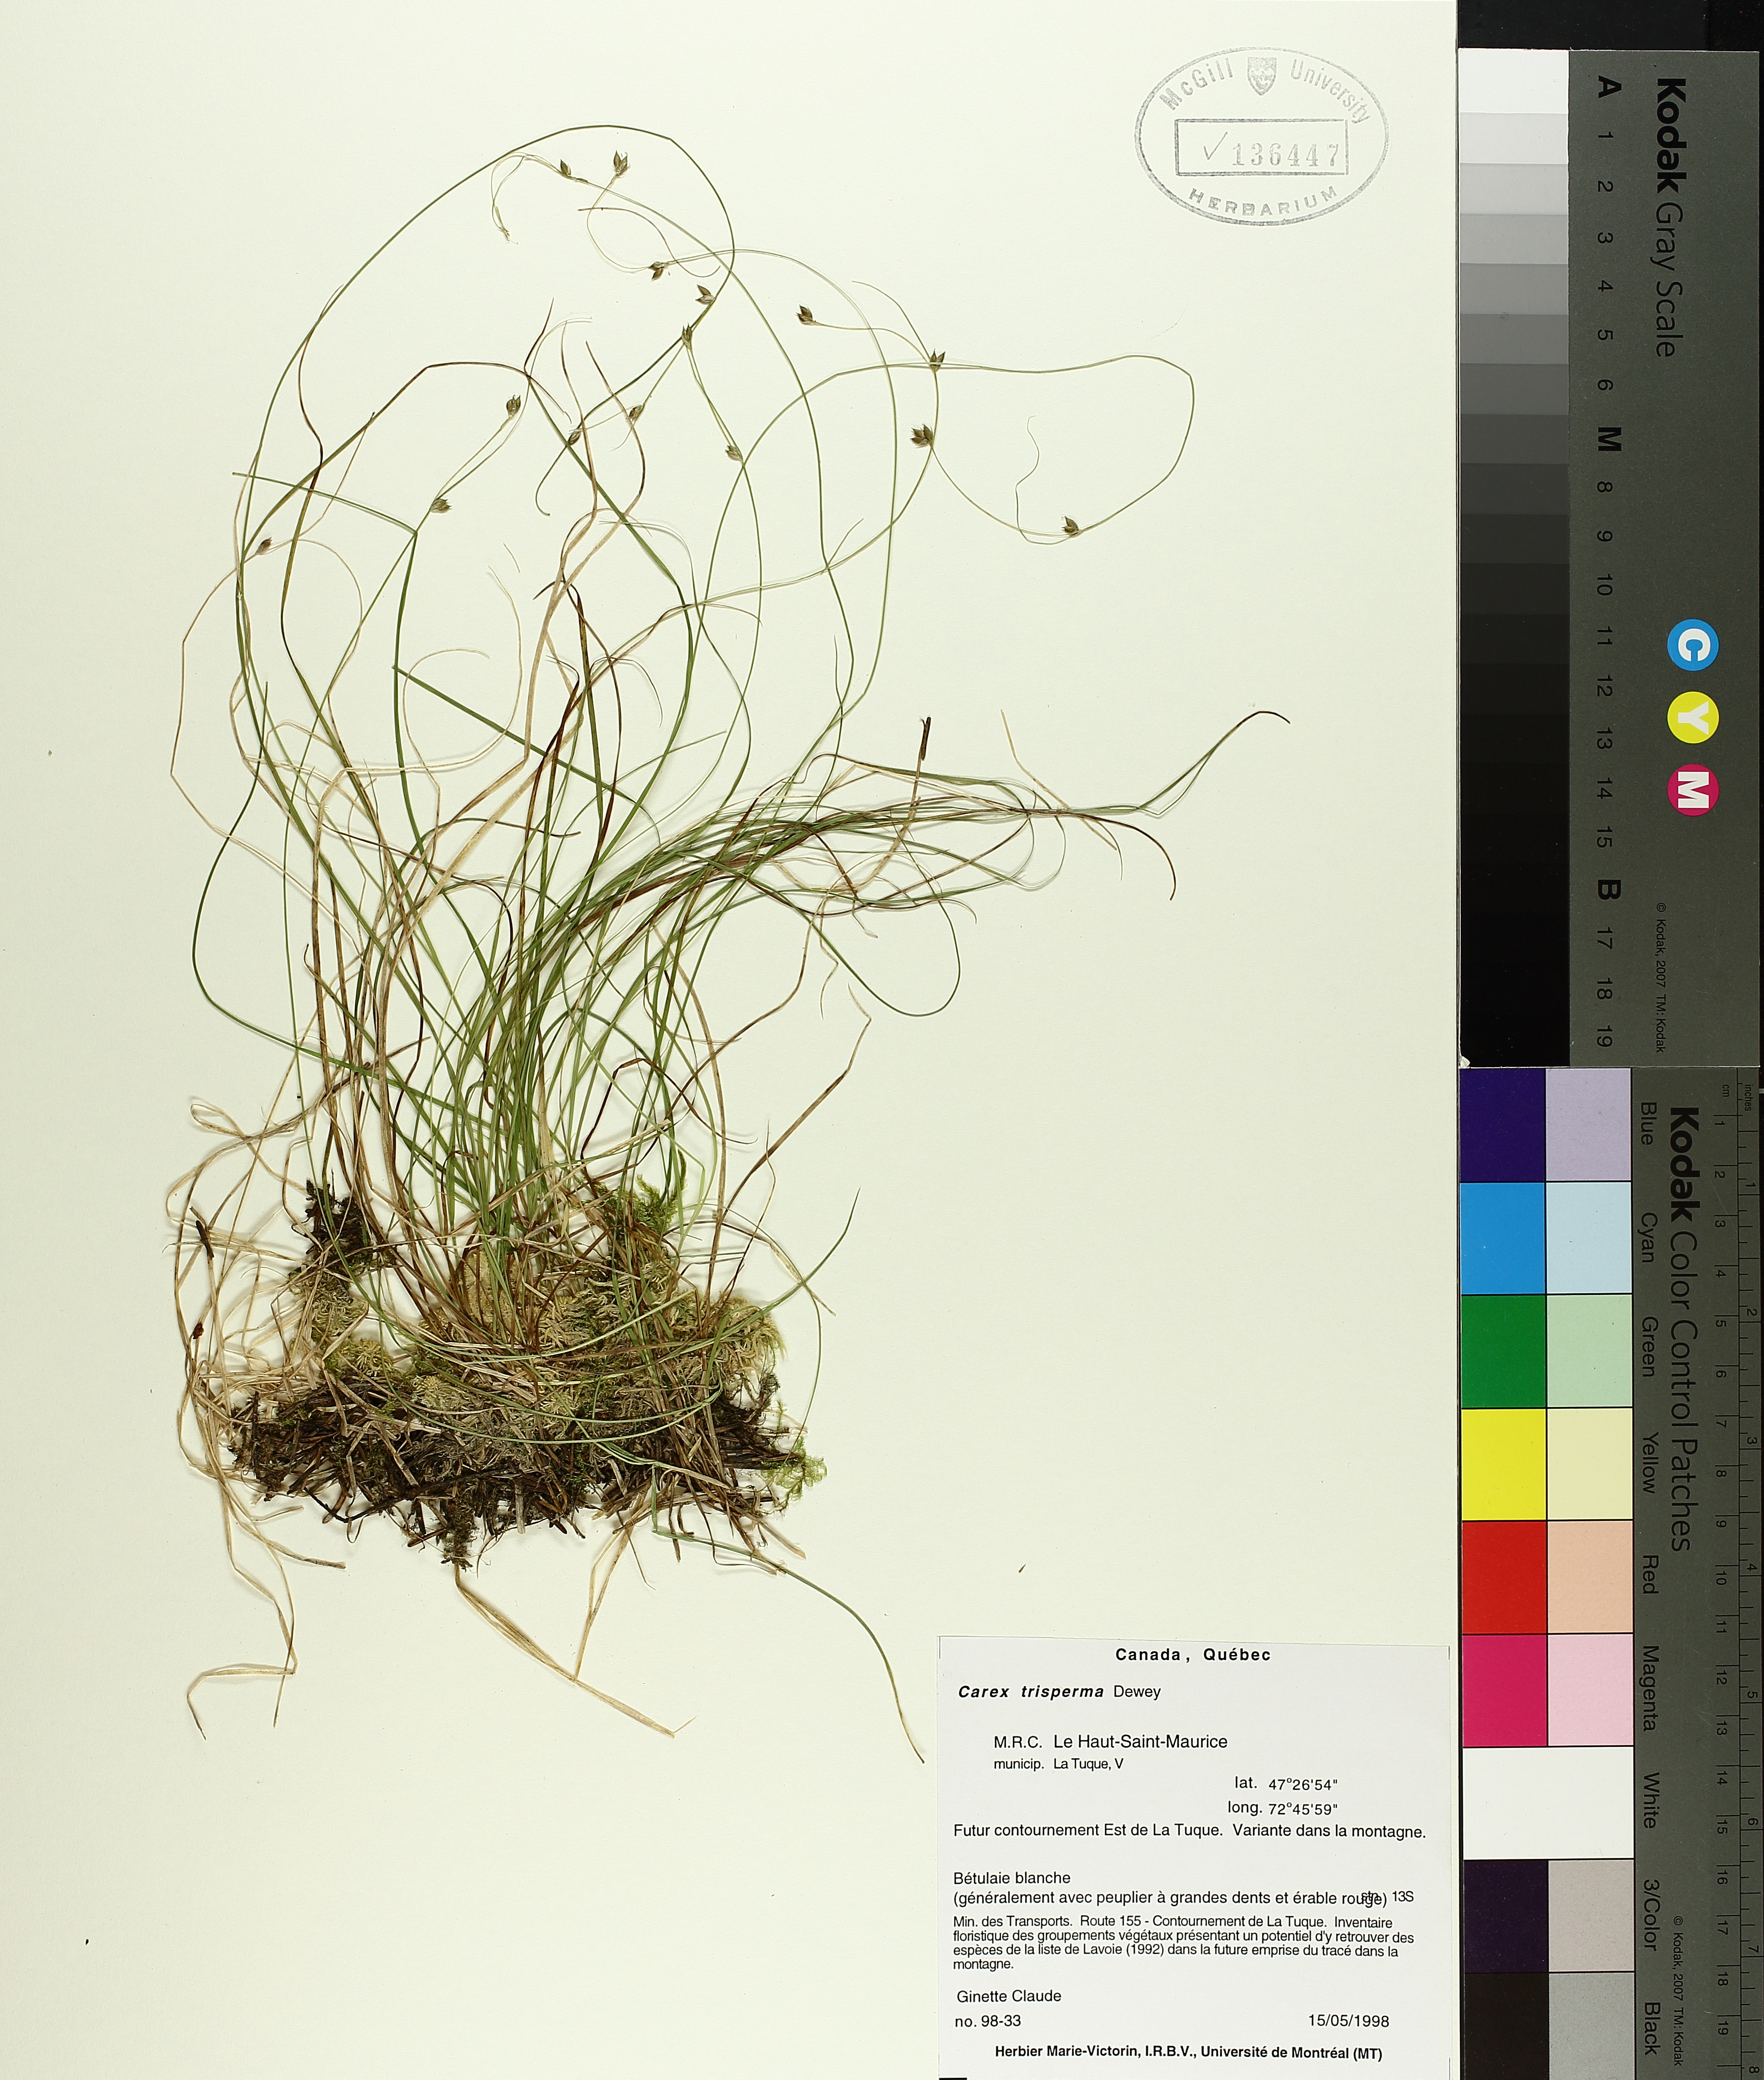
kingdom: Plantae
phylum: Tracheophyta
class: Liliopsida
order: Poales
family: Cyperaceae
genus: Carex
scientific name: Carex trisperma
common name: Three-seeded sedge
